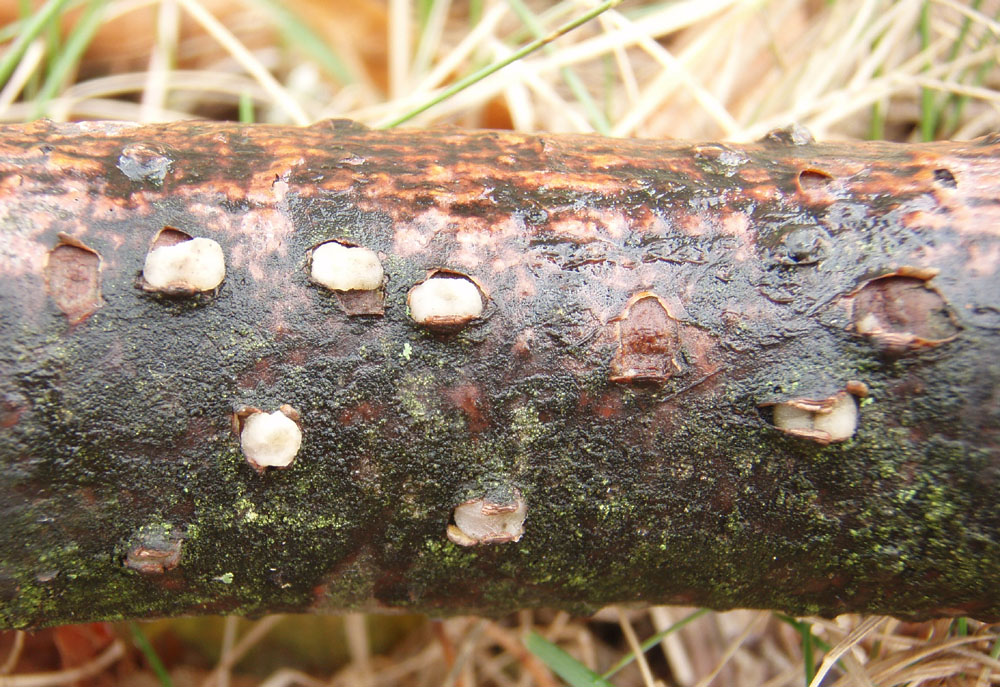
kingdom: Fungi
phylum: Basidiomycota
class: Pucciniomycetes
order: Platygloeales
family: Platygloeaceae
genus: Platygloea
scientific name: Platygloea disciformis
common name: linde-slimklat
